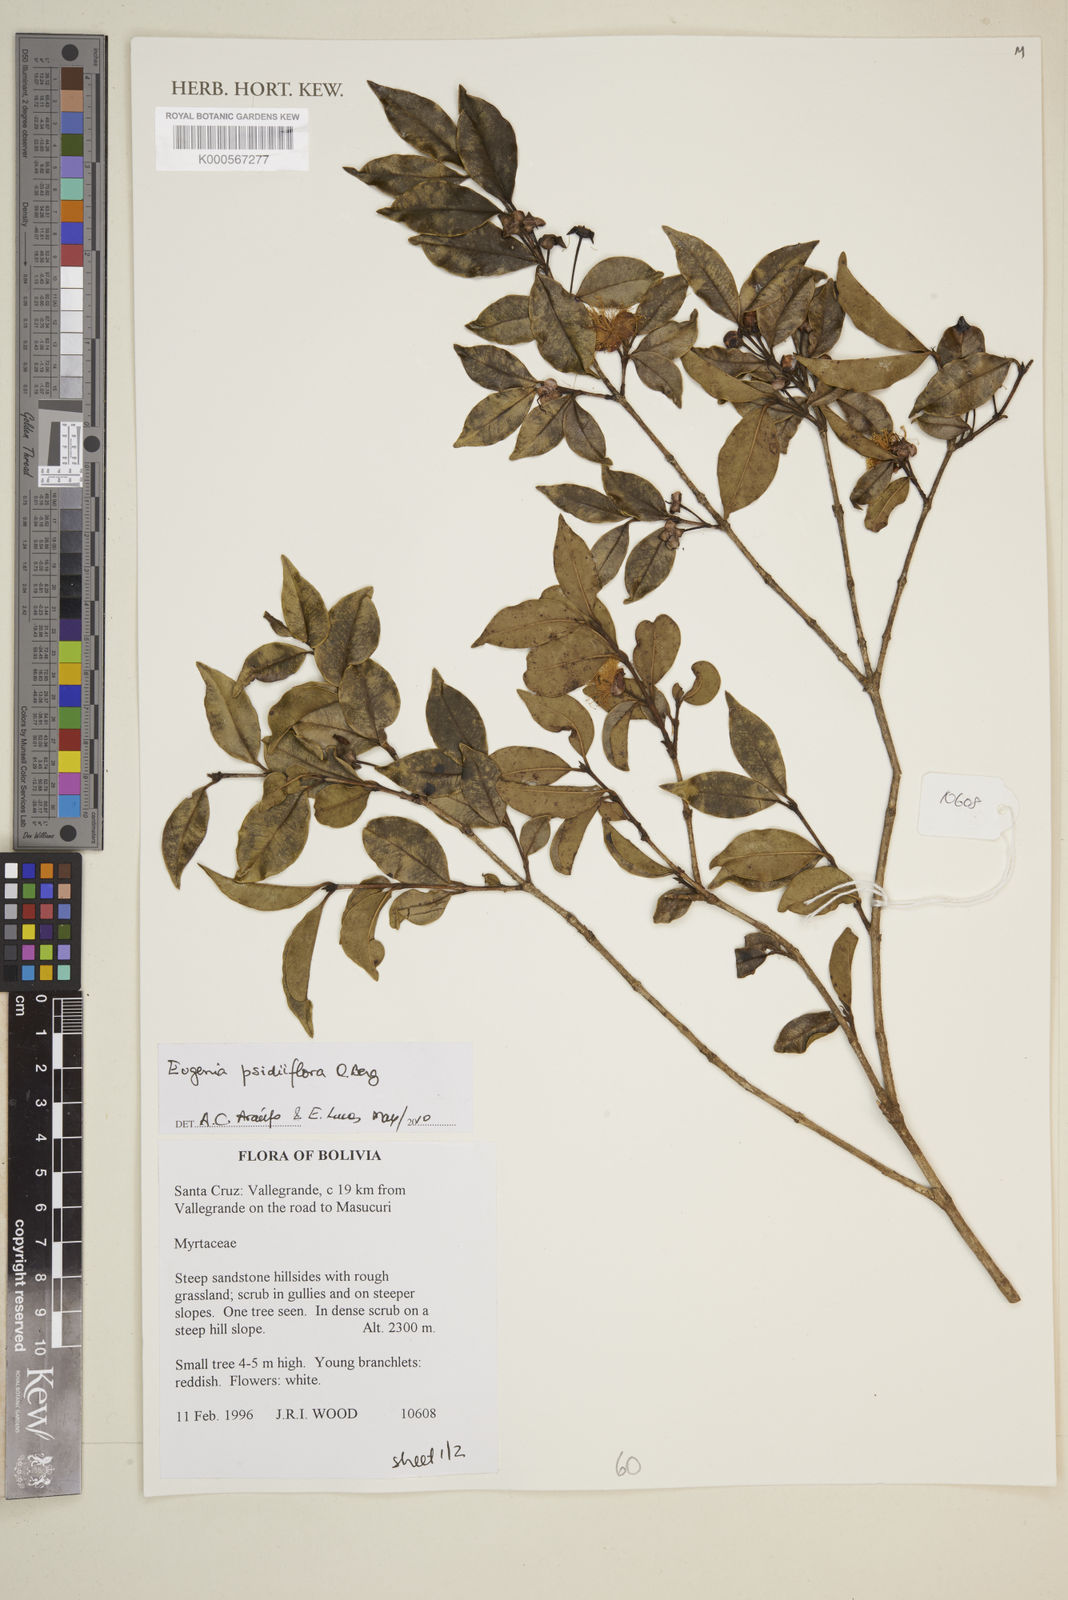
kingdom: Plantae
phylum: Tracheophyta
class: Magnoliopsida
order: Myrtales
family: Myrtaceae
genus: Eugenia
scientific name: Eugenia psidiiflora
